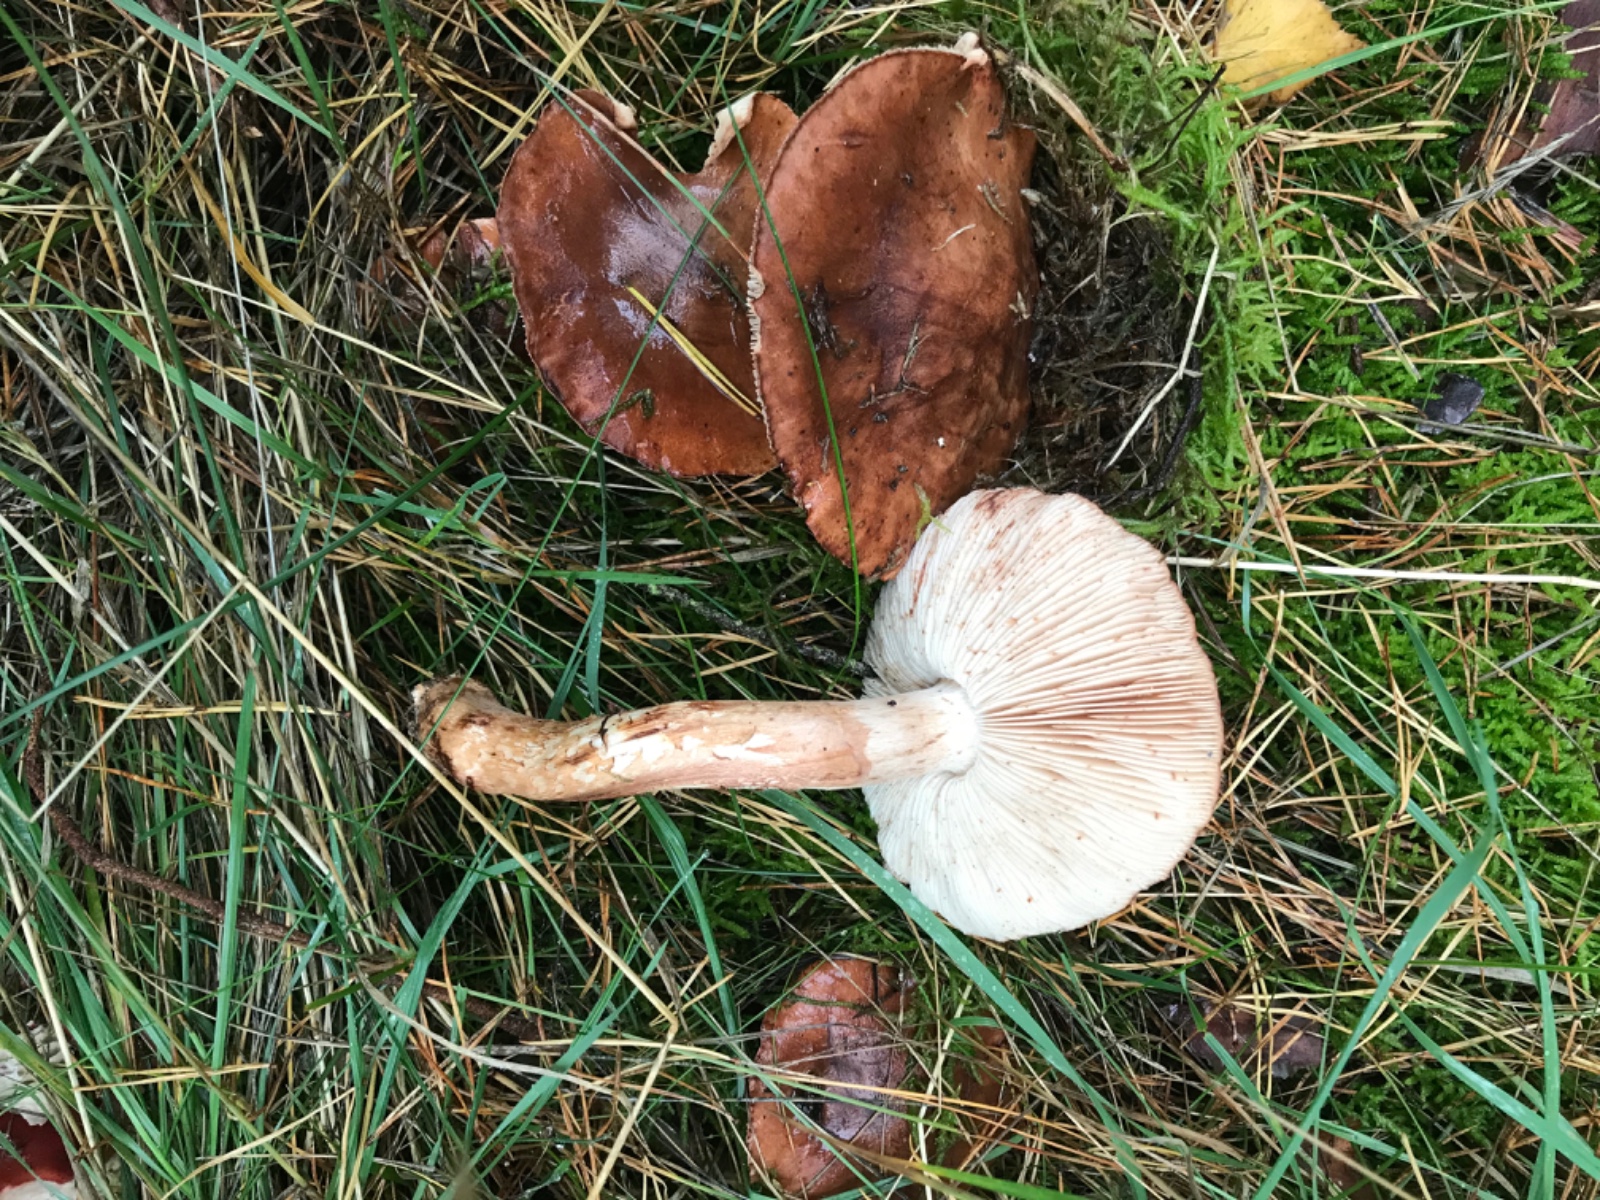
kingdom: Fungi
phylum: Basidiomycota
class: Agaricomycetes
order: Agaricales
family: Tricholomataceae
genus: Tricholoma
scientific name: Tricholoma albobrunneum
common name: kastanie-ridderhat
